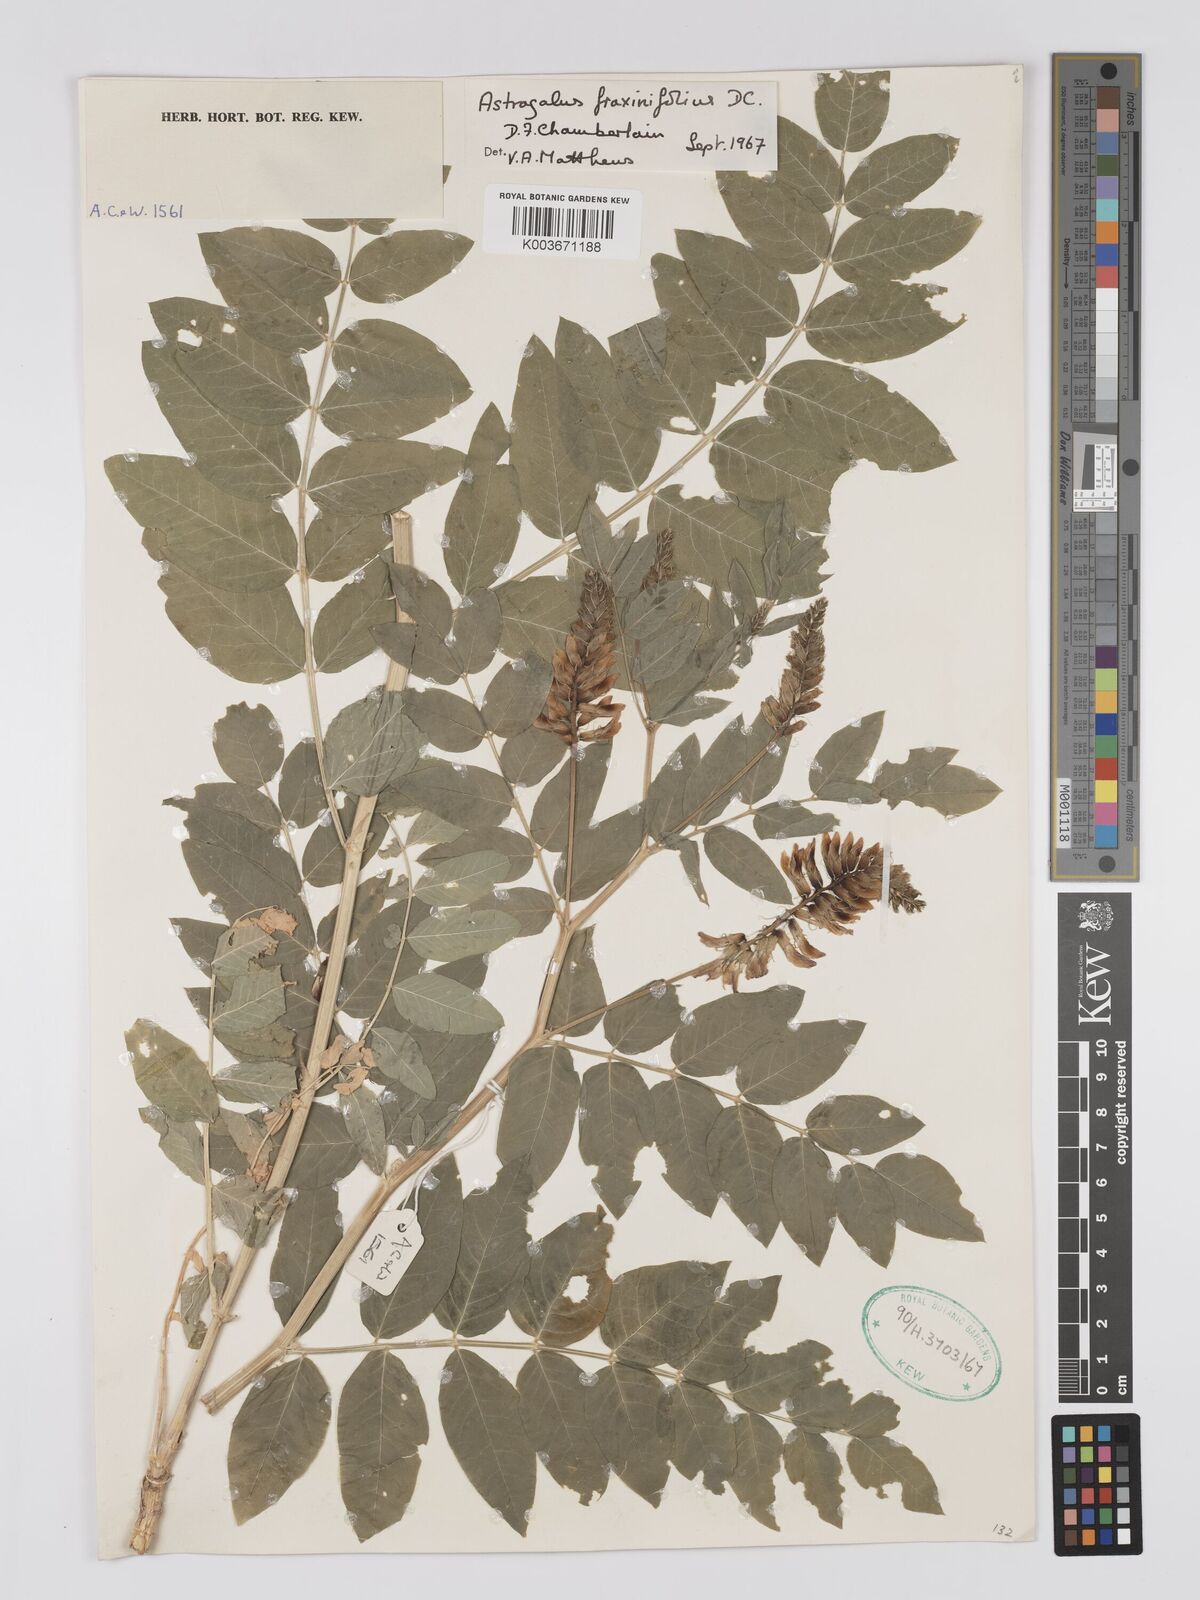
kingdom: Plantae
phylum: Tracheophyta
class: Magnoliopsida
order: Fabales
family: Fabaceae
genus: Astragalus
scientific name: Astragalus fraxinifolius
